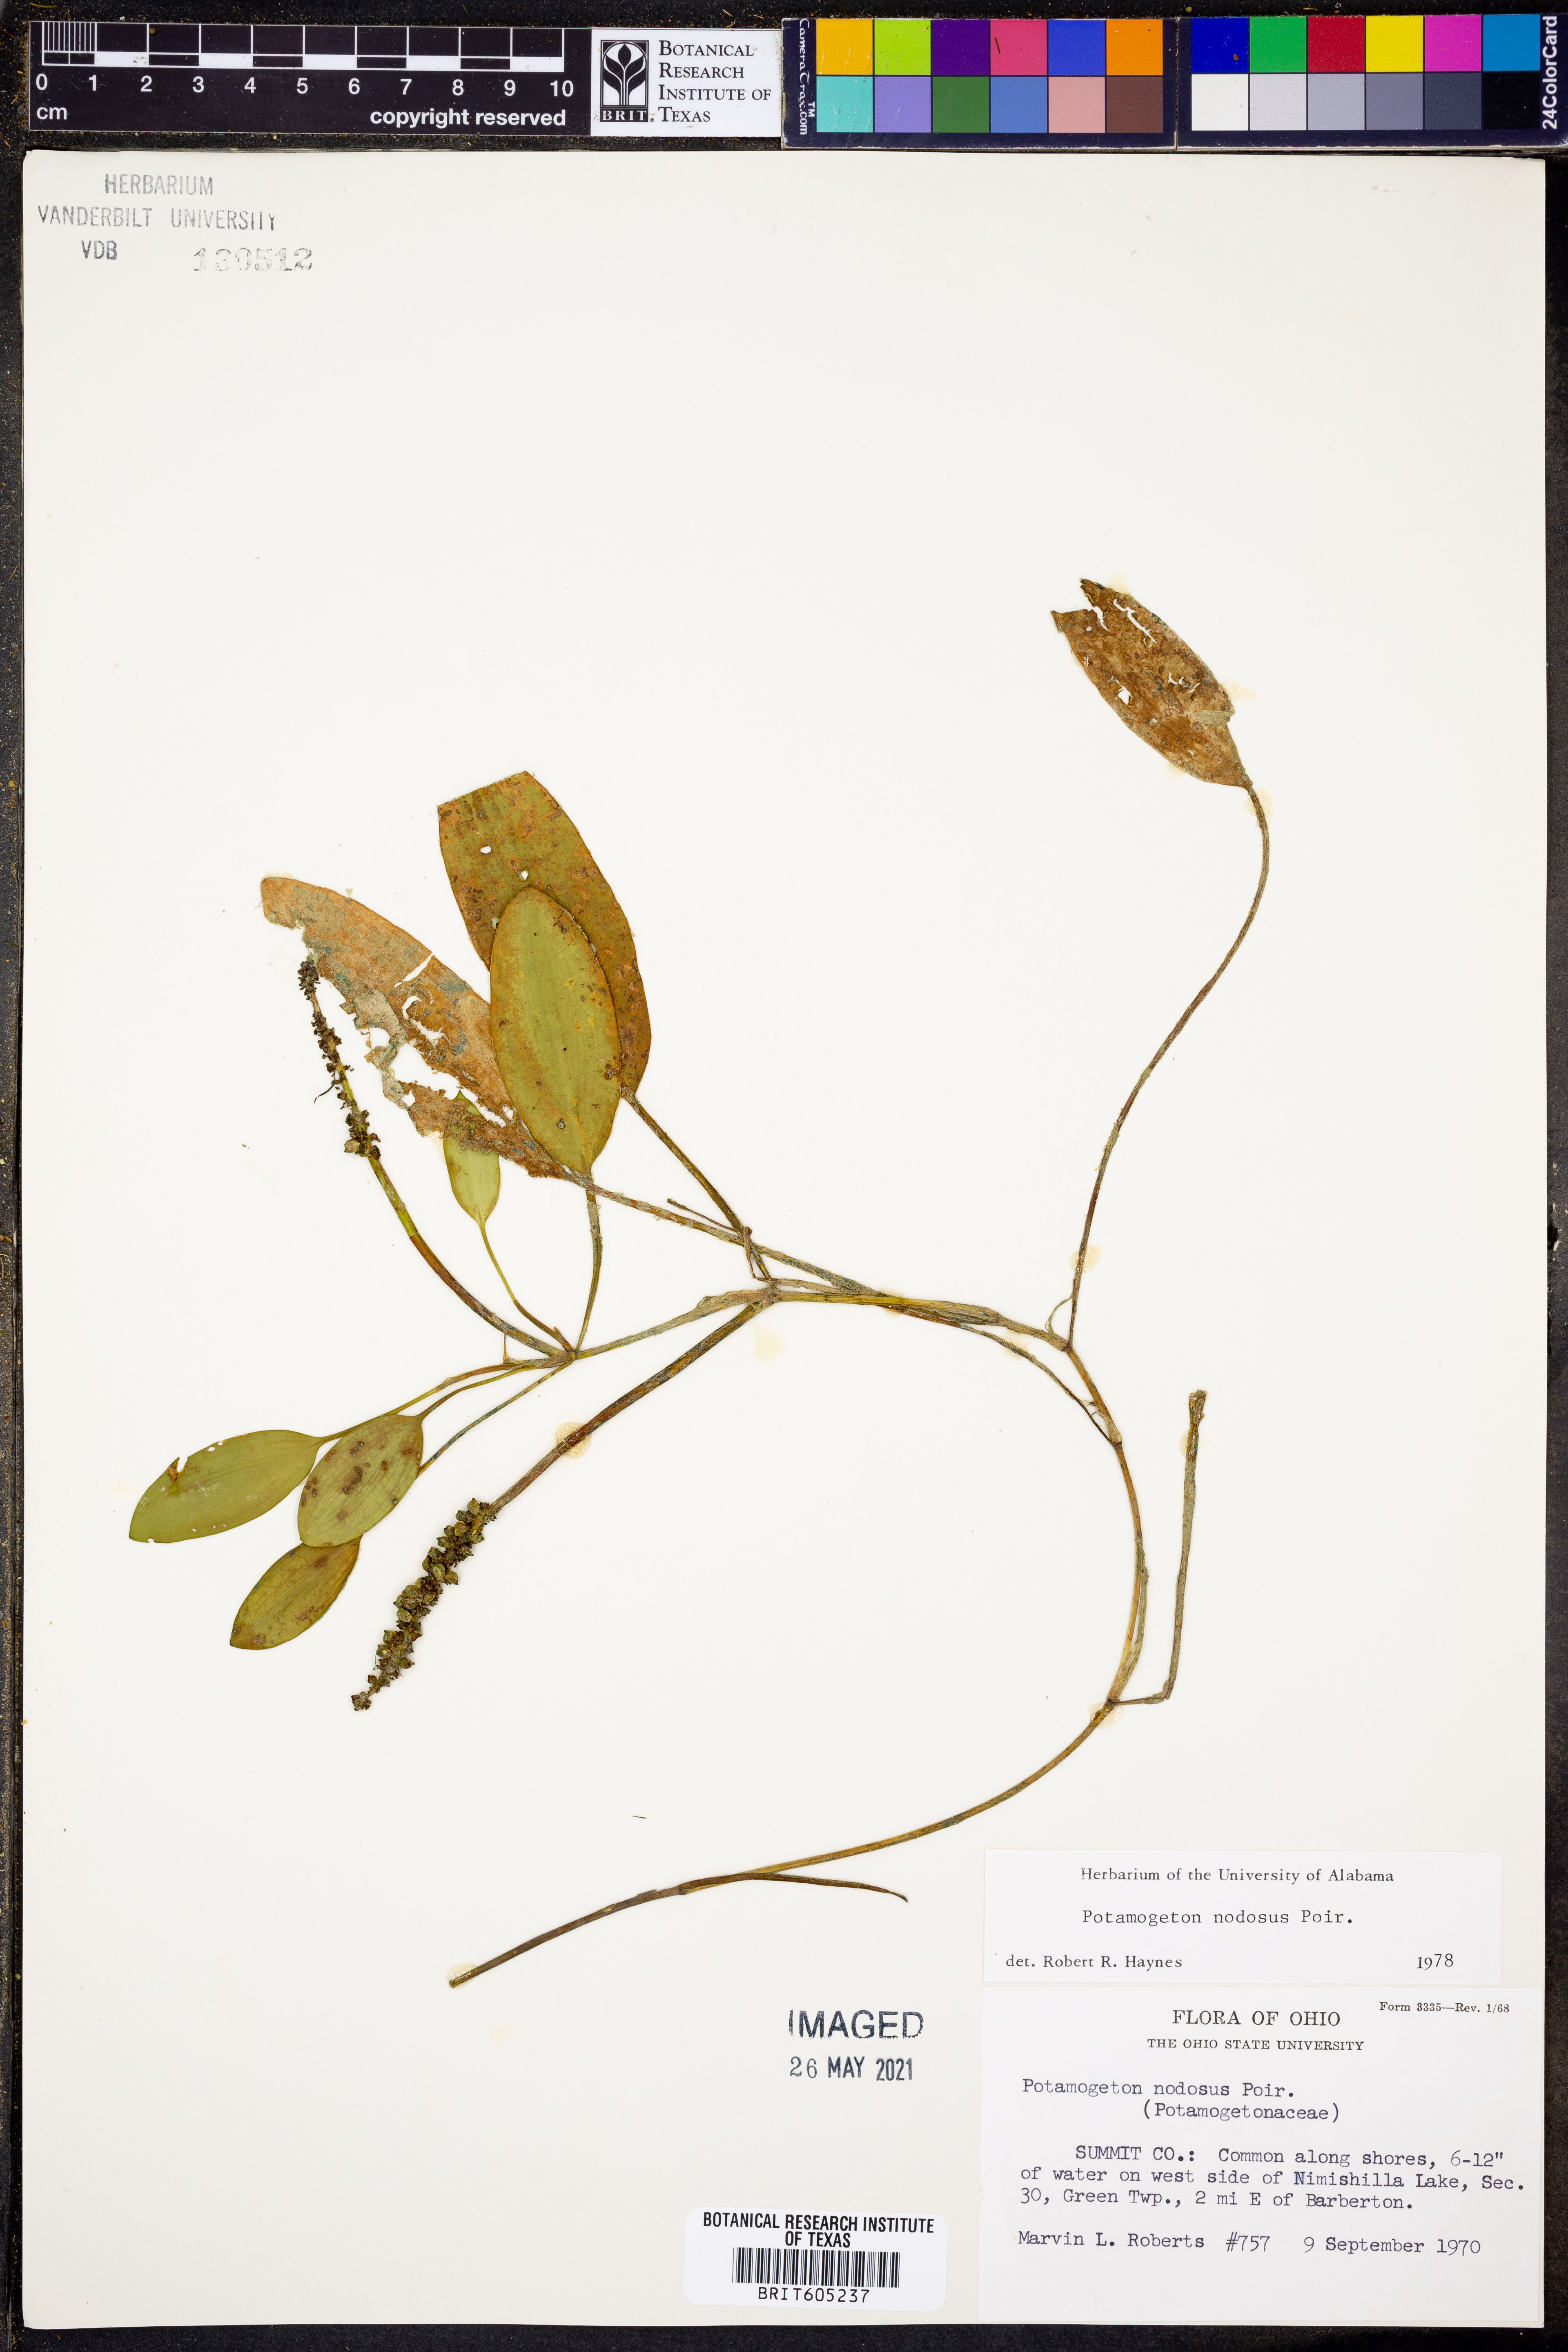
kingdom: Plantae
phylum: Tracheophyta
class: Liliopsida
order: Alismatales
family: Potamogetonaceae
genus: Potamogeton
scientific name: Potamogeton nodosus
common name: Loddon pondweed
